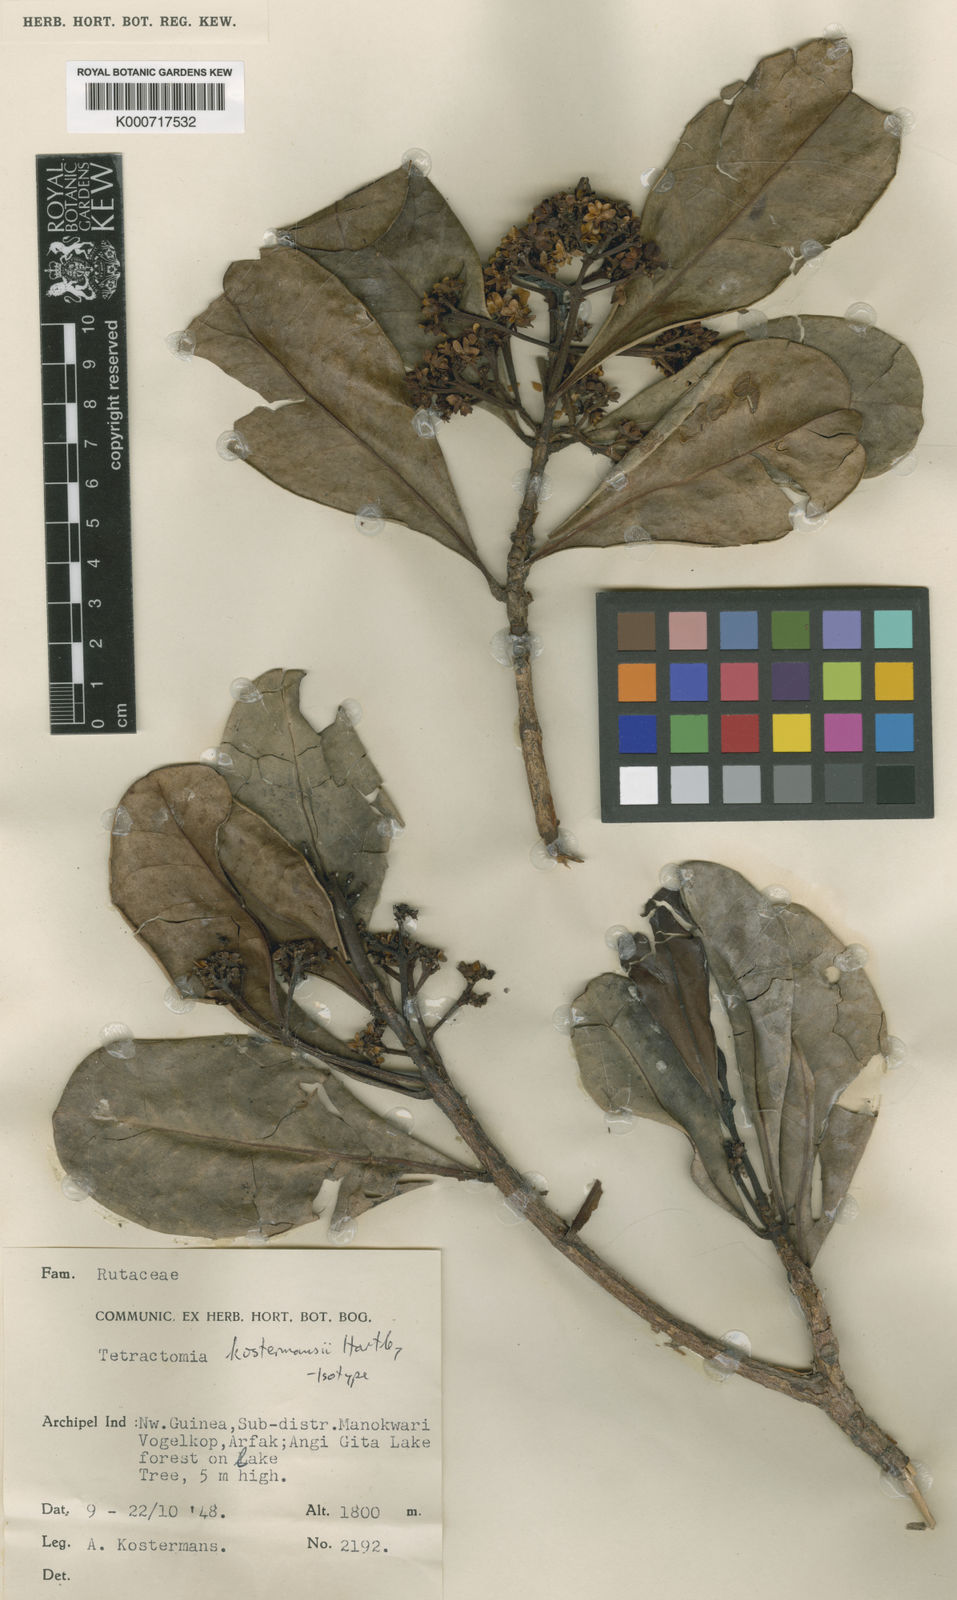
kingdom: Plantae
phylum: Tracheophyta
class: Magnoliopsida
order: Sapindales
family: Rutaceae
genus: Tetractomia
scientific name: Tetractomia kostermansii
